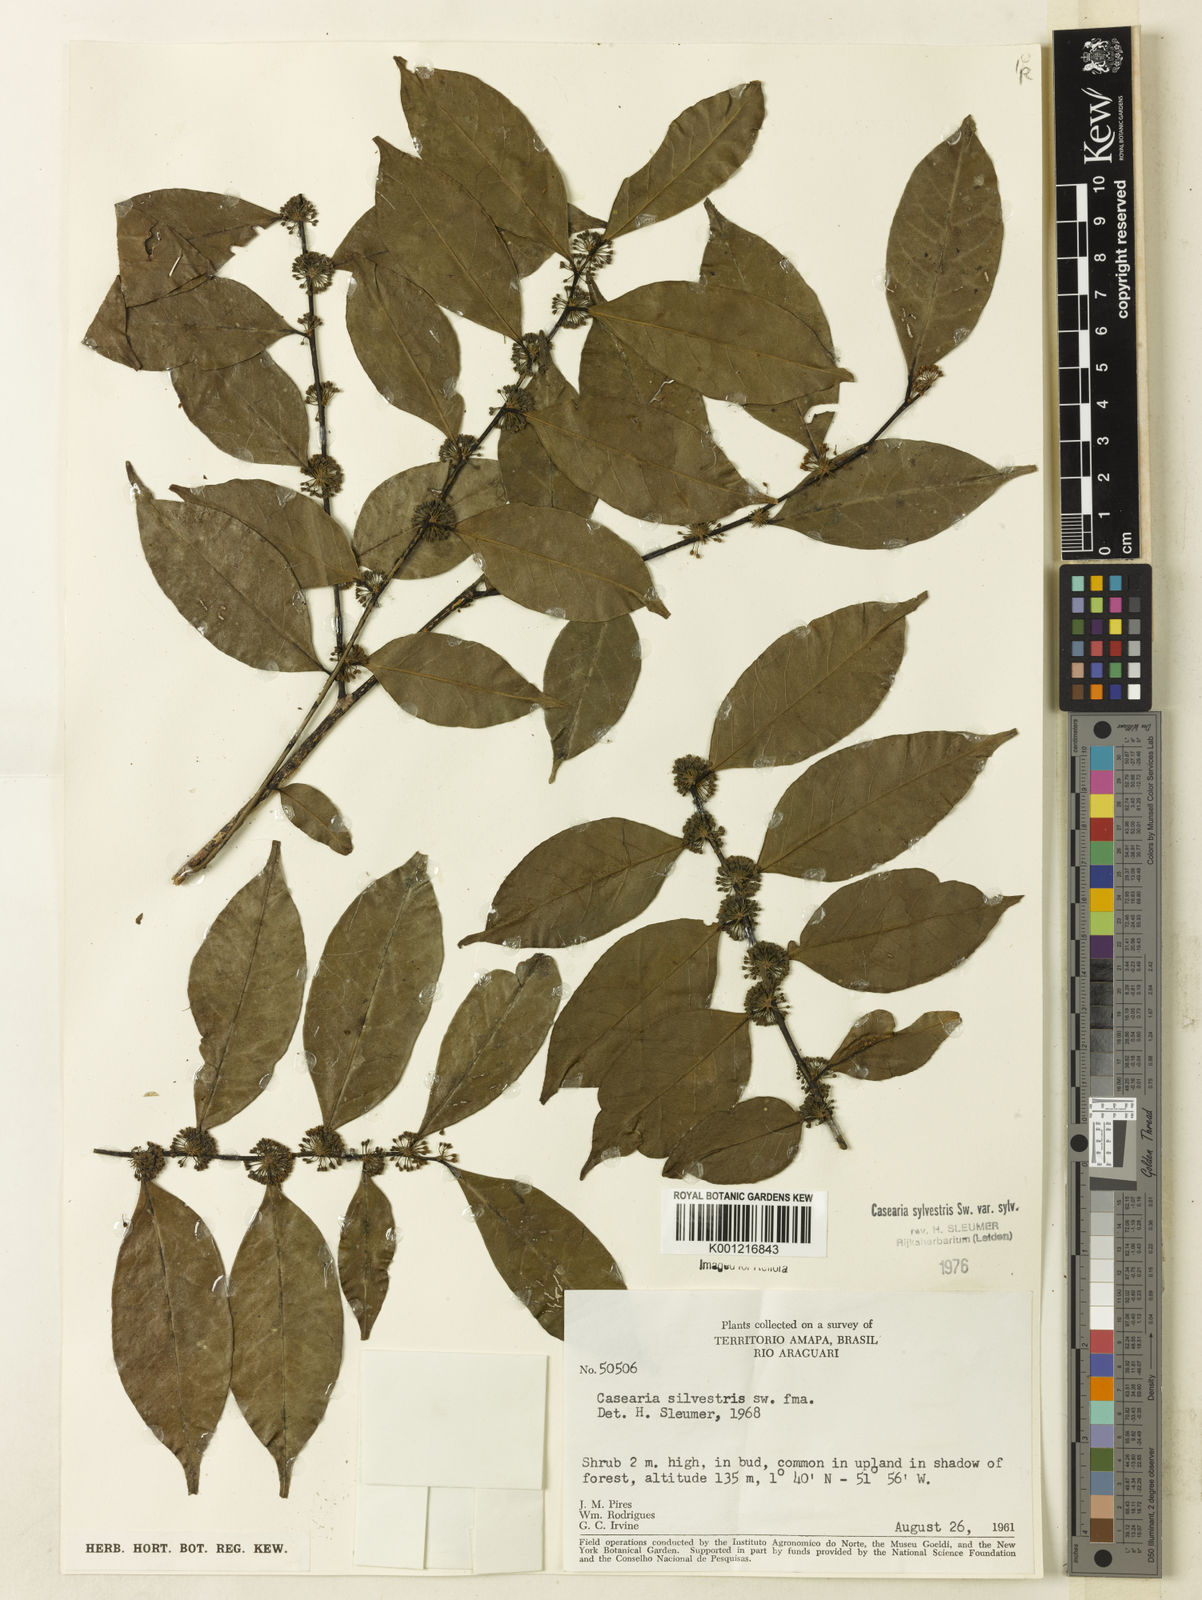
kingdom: Plantae
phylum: Tracheophyta
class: Magnoliopsida
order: Malpighiales
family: Salicaceae
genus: Casearia
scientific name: Casearia sylvestris
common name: Wild sage
